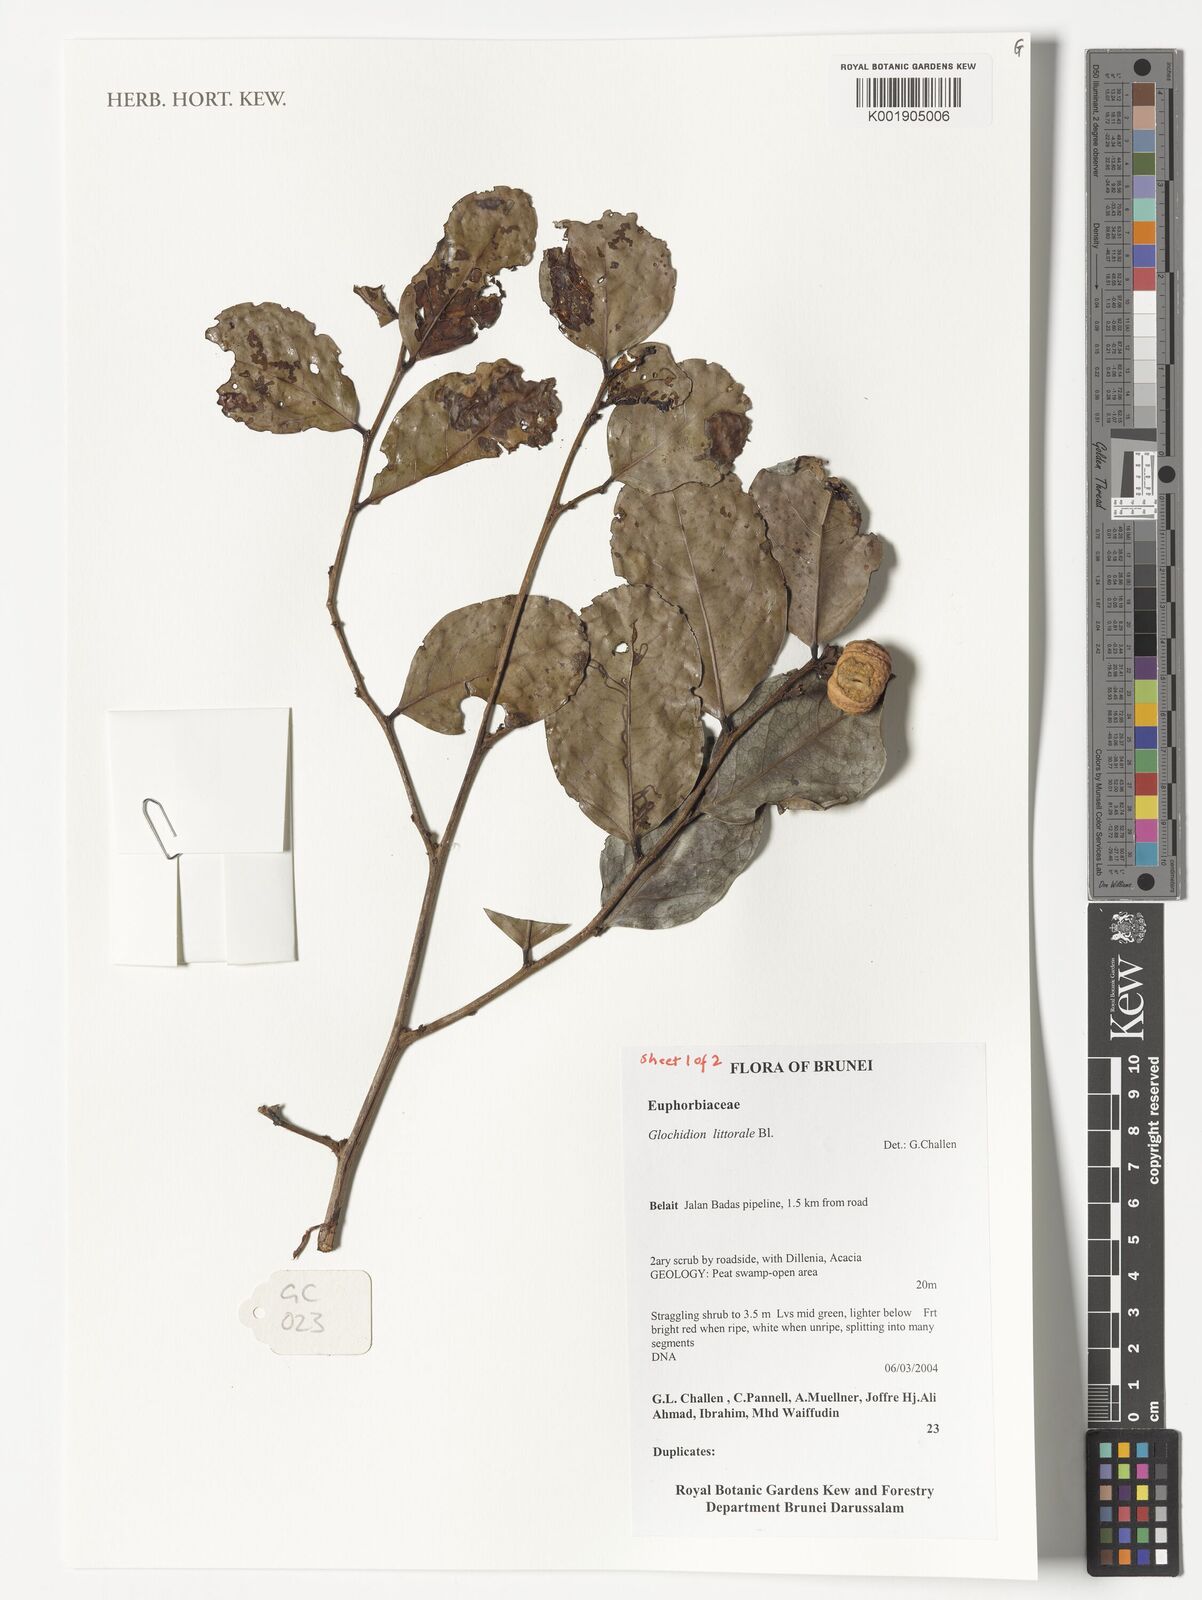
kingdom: Plantae
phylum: Tracheophyta
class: Magnoliopsida
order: Malpighiales
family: Phyllanthaceae
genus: Glochidion
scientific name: Glochidion littorale
